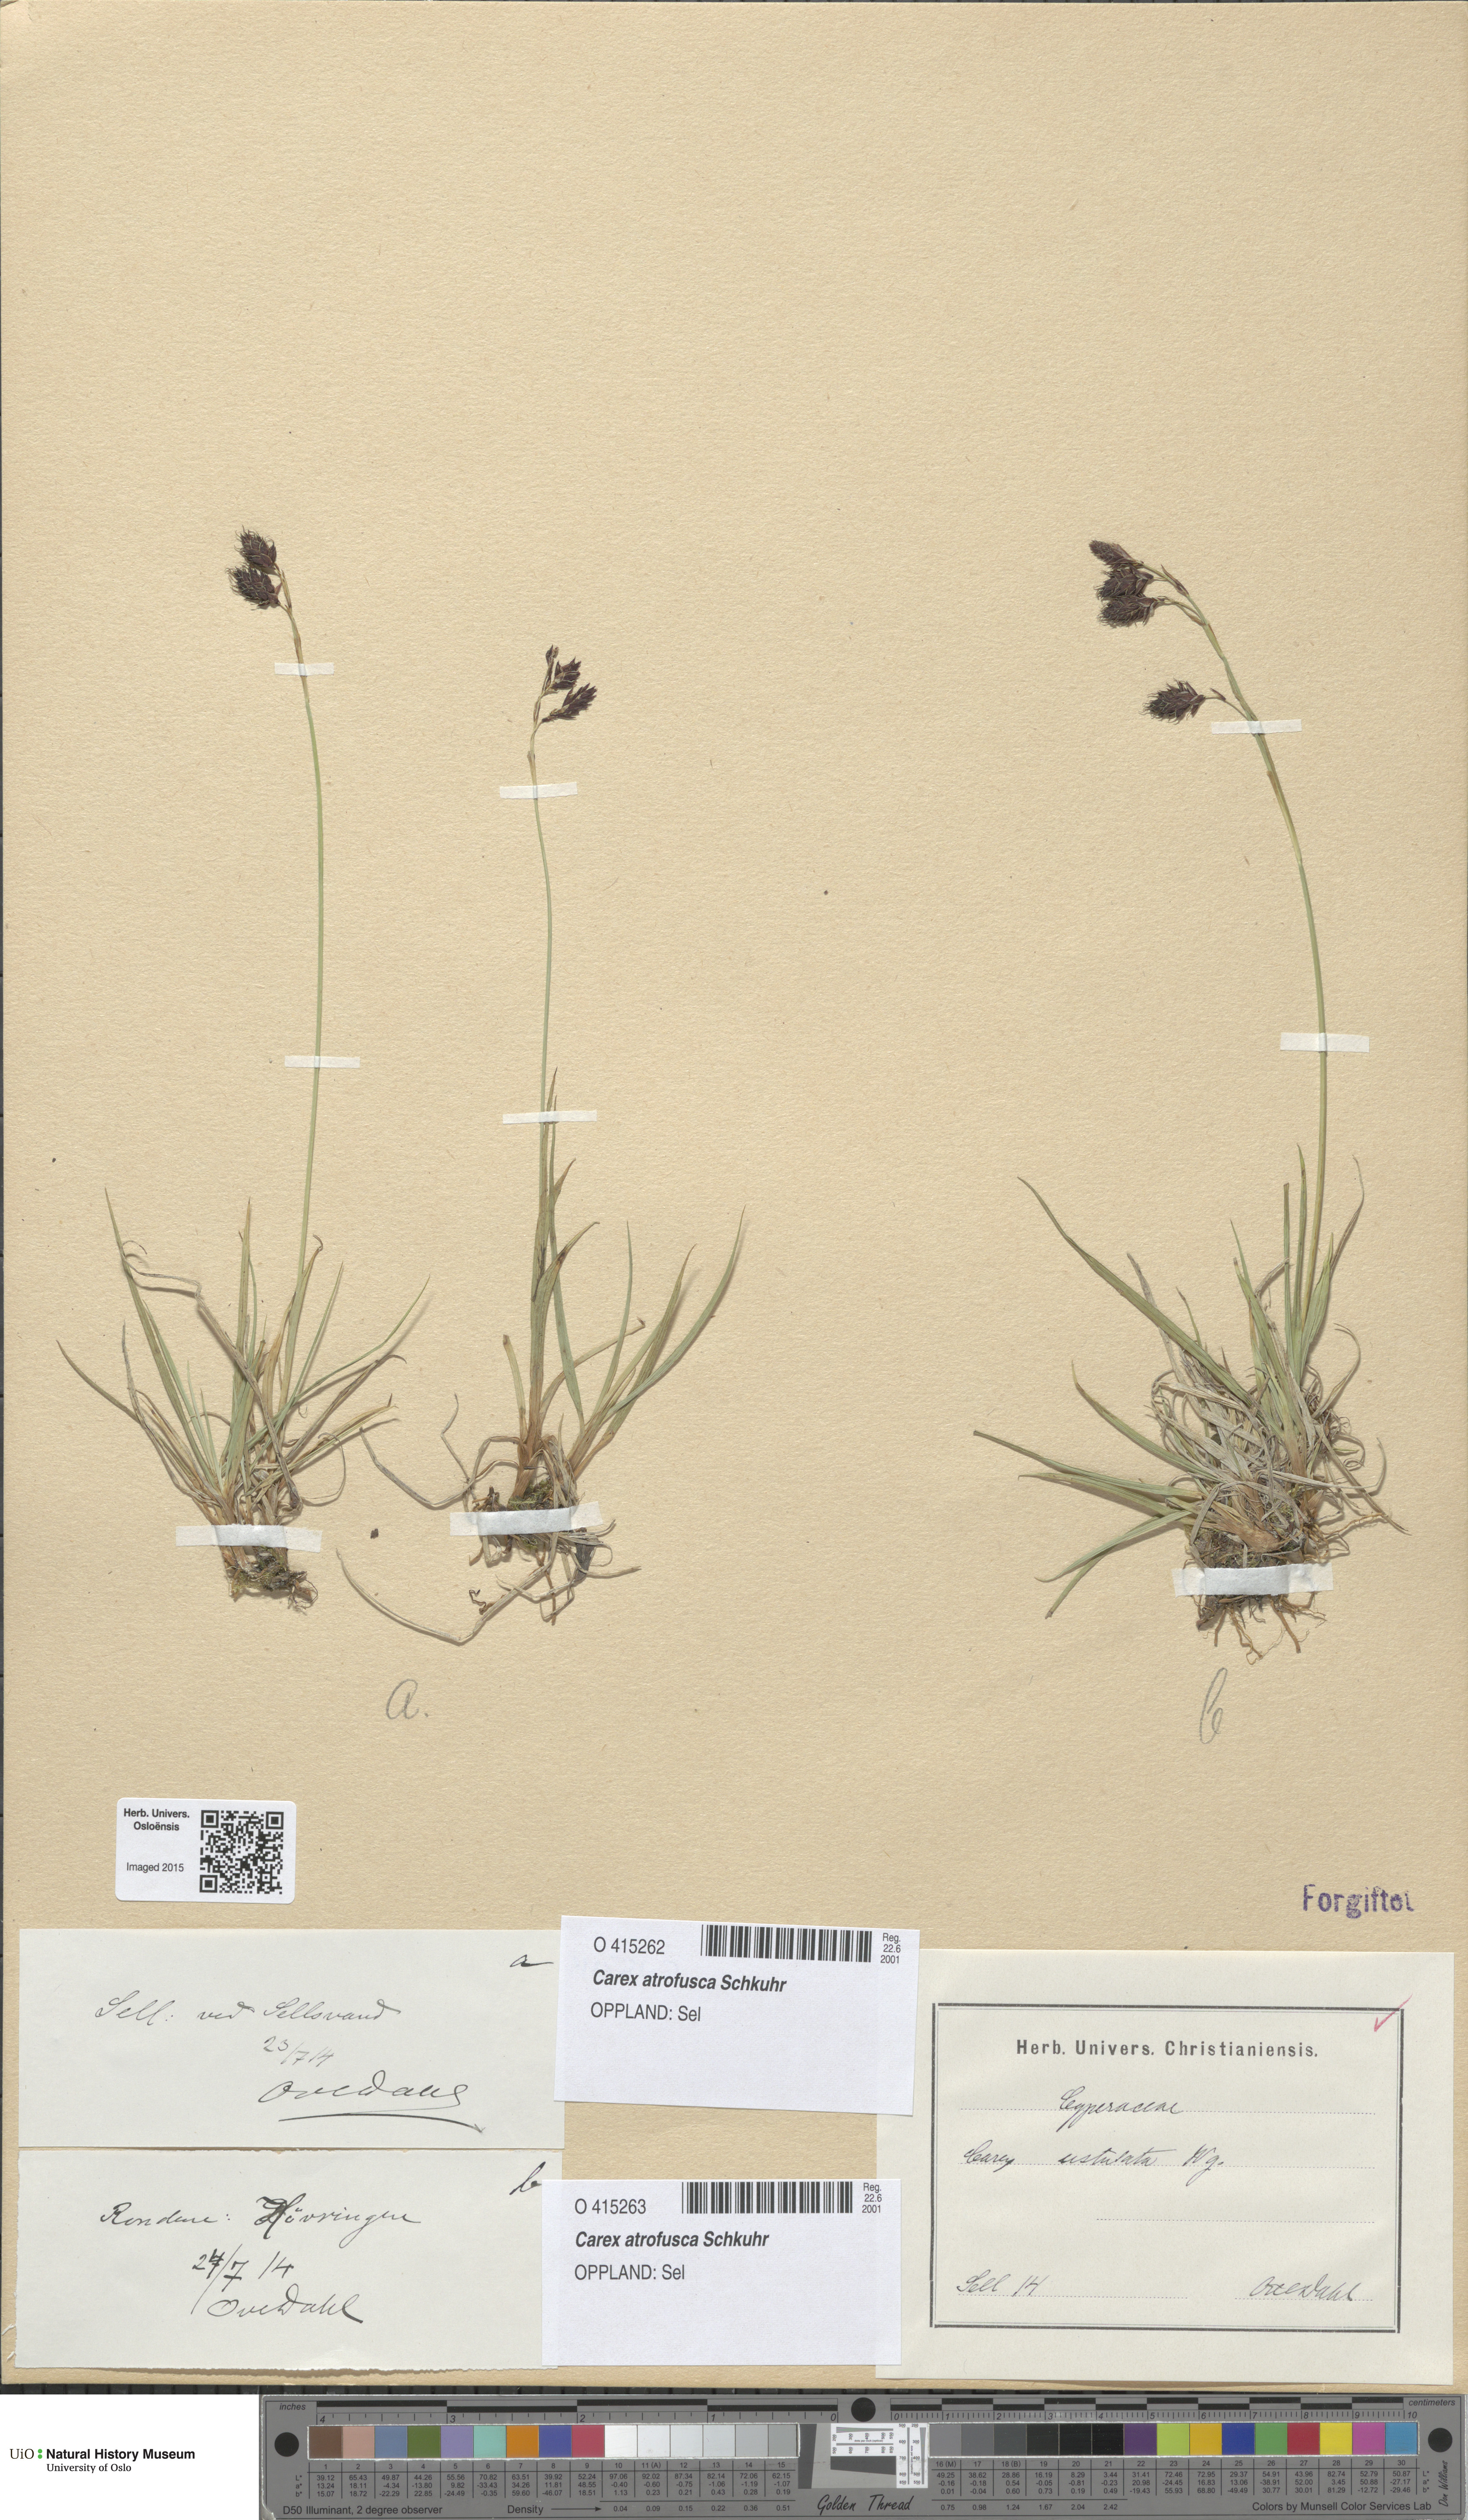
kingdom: Plantae
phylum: Tracheophyta
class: Liliopsida
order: Poales
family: Cyperaceae
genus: Carex
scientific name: Carex atrofusca
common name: Scorched alpine-sedge
